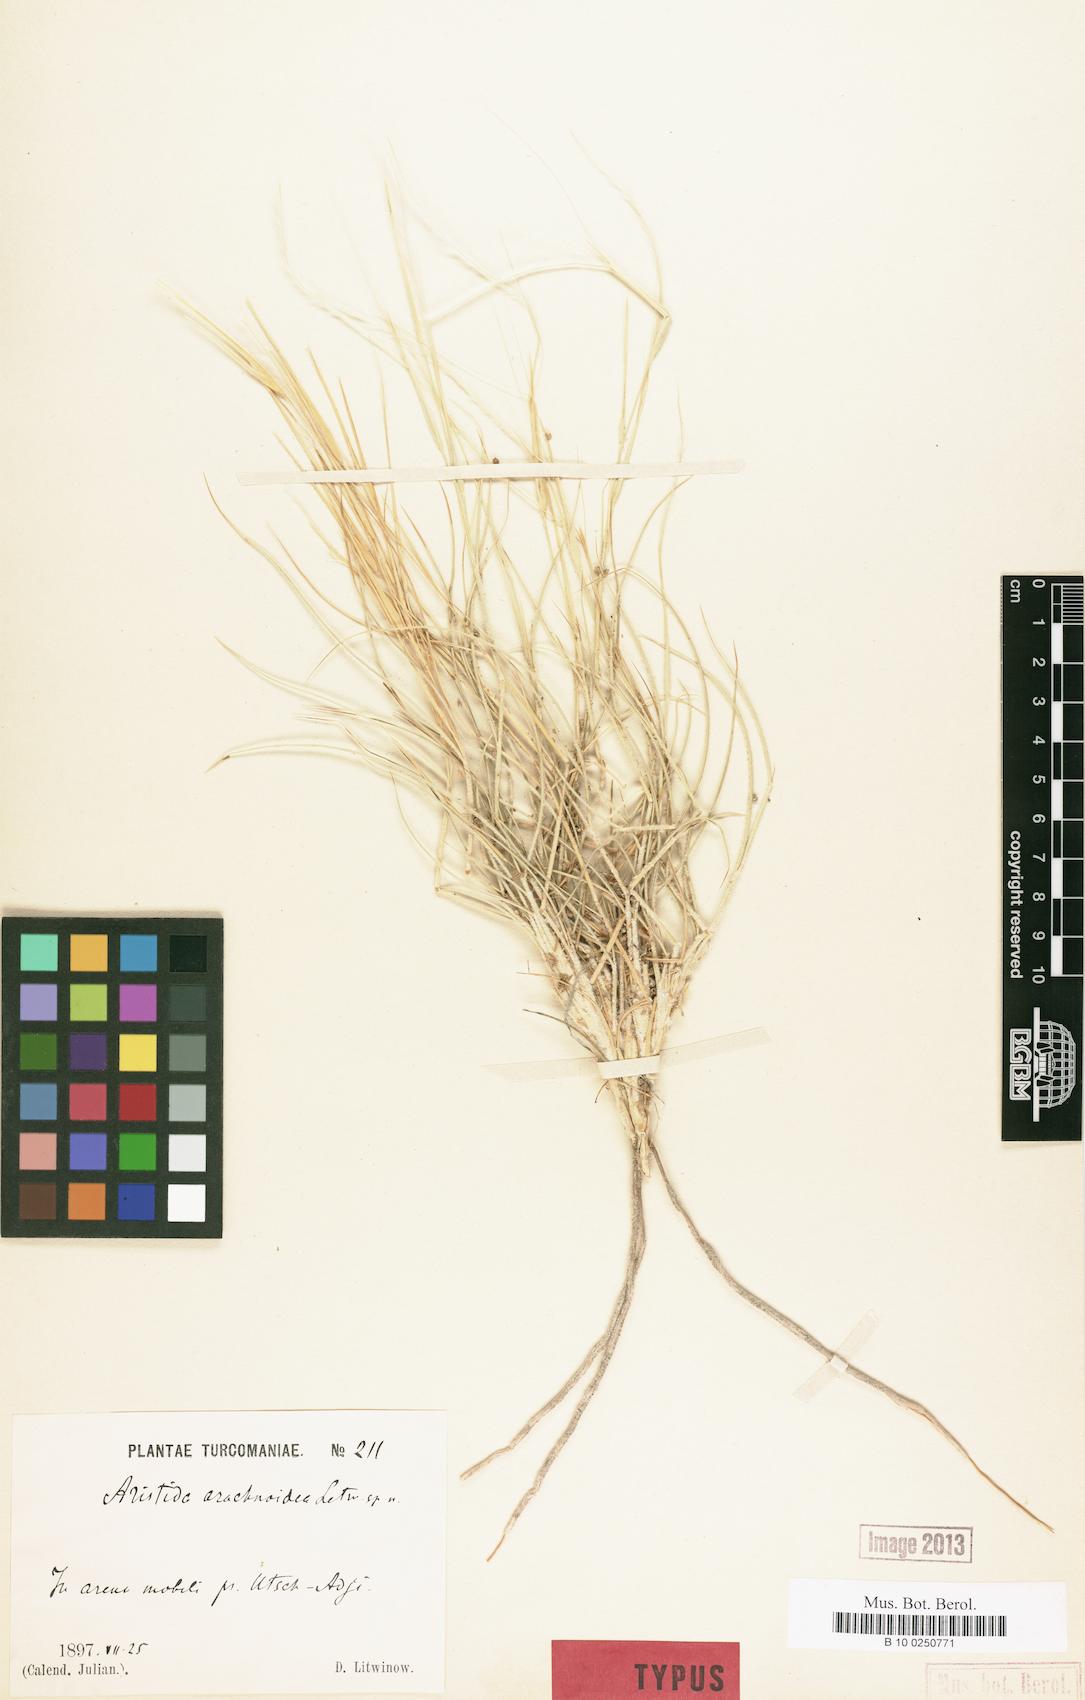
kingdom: Plantae
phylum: Tracheophyta
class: Liliopsida
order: Poales
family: Poaceae
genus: Stipagrostis
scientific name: Stipagrostis arachnoidea
